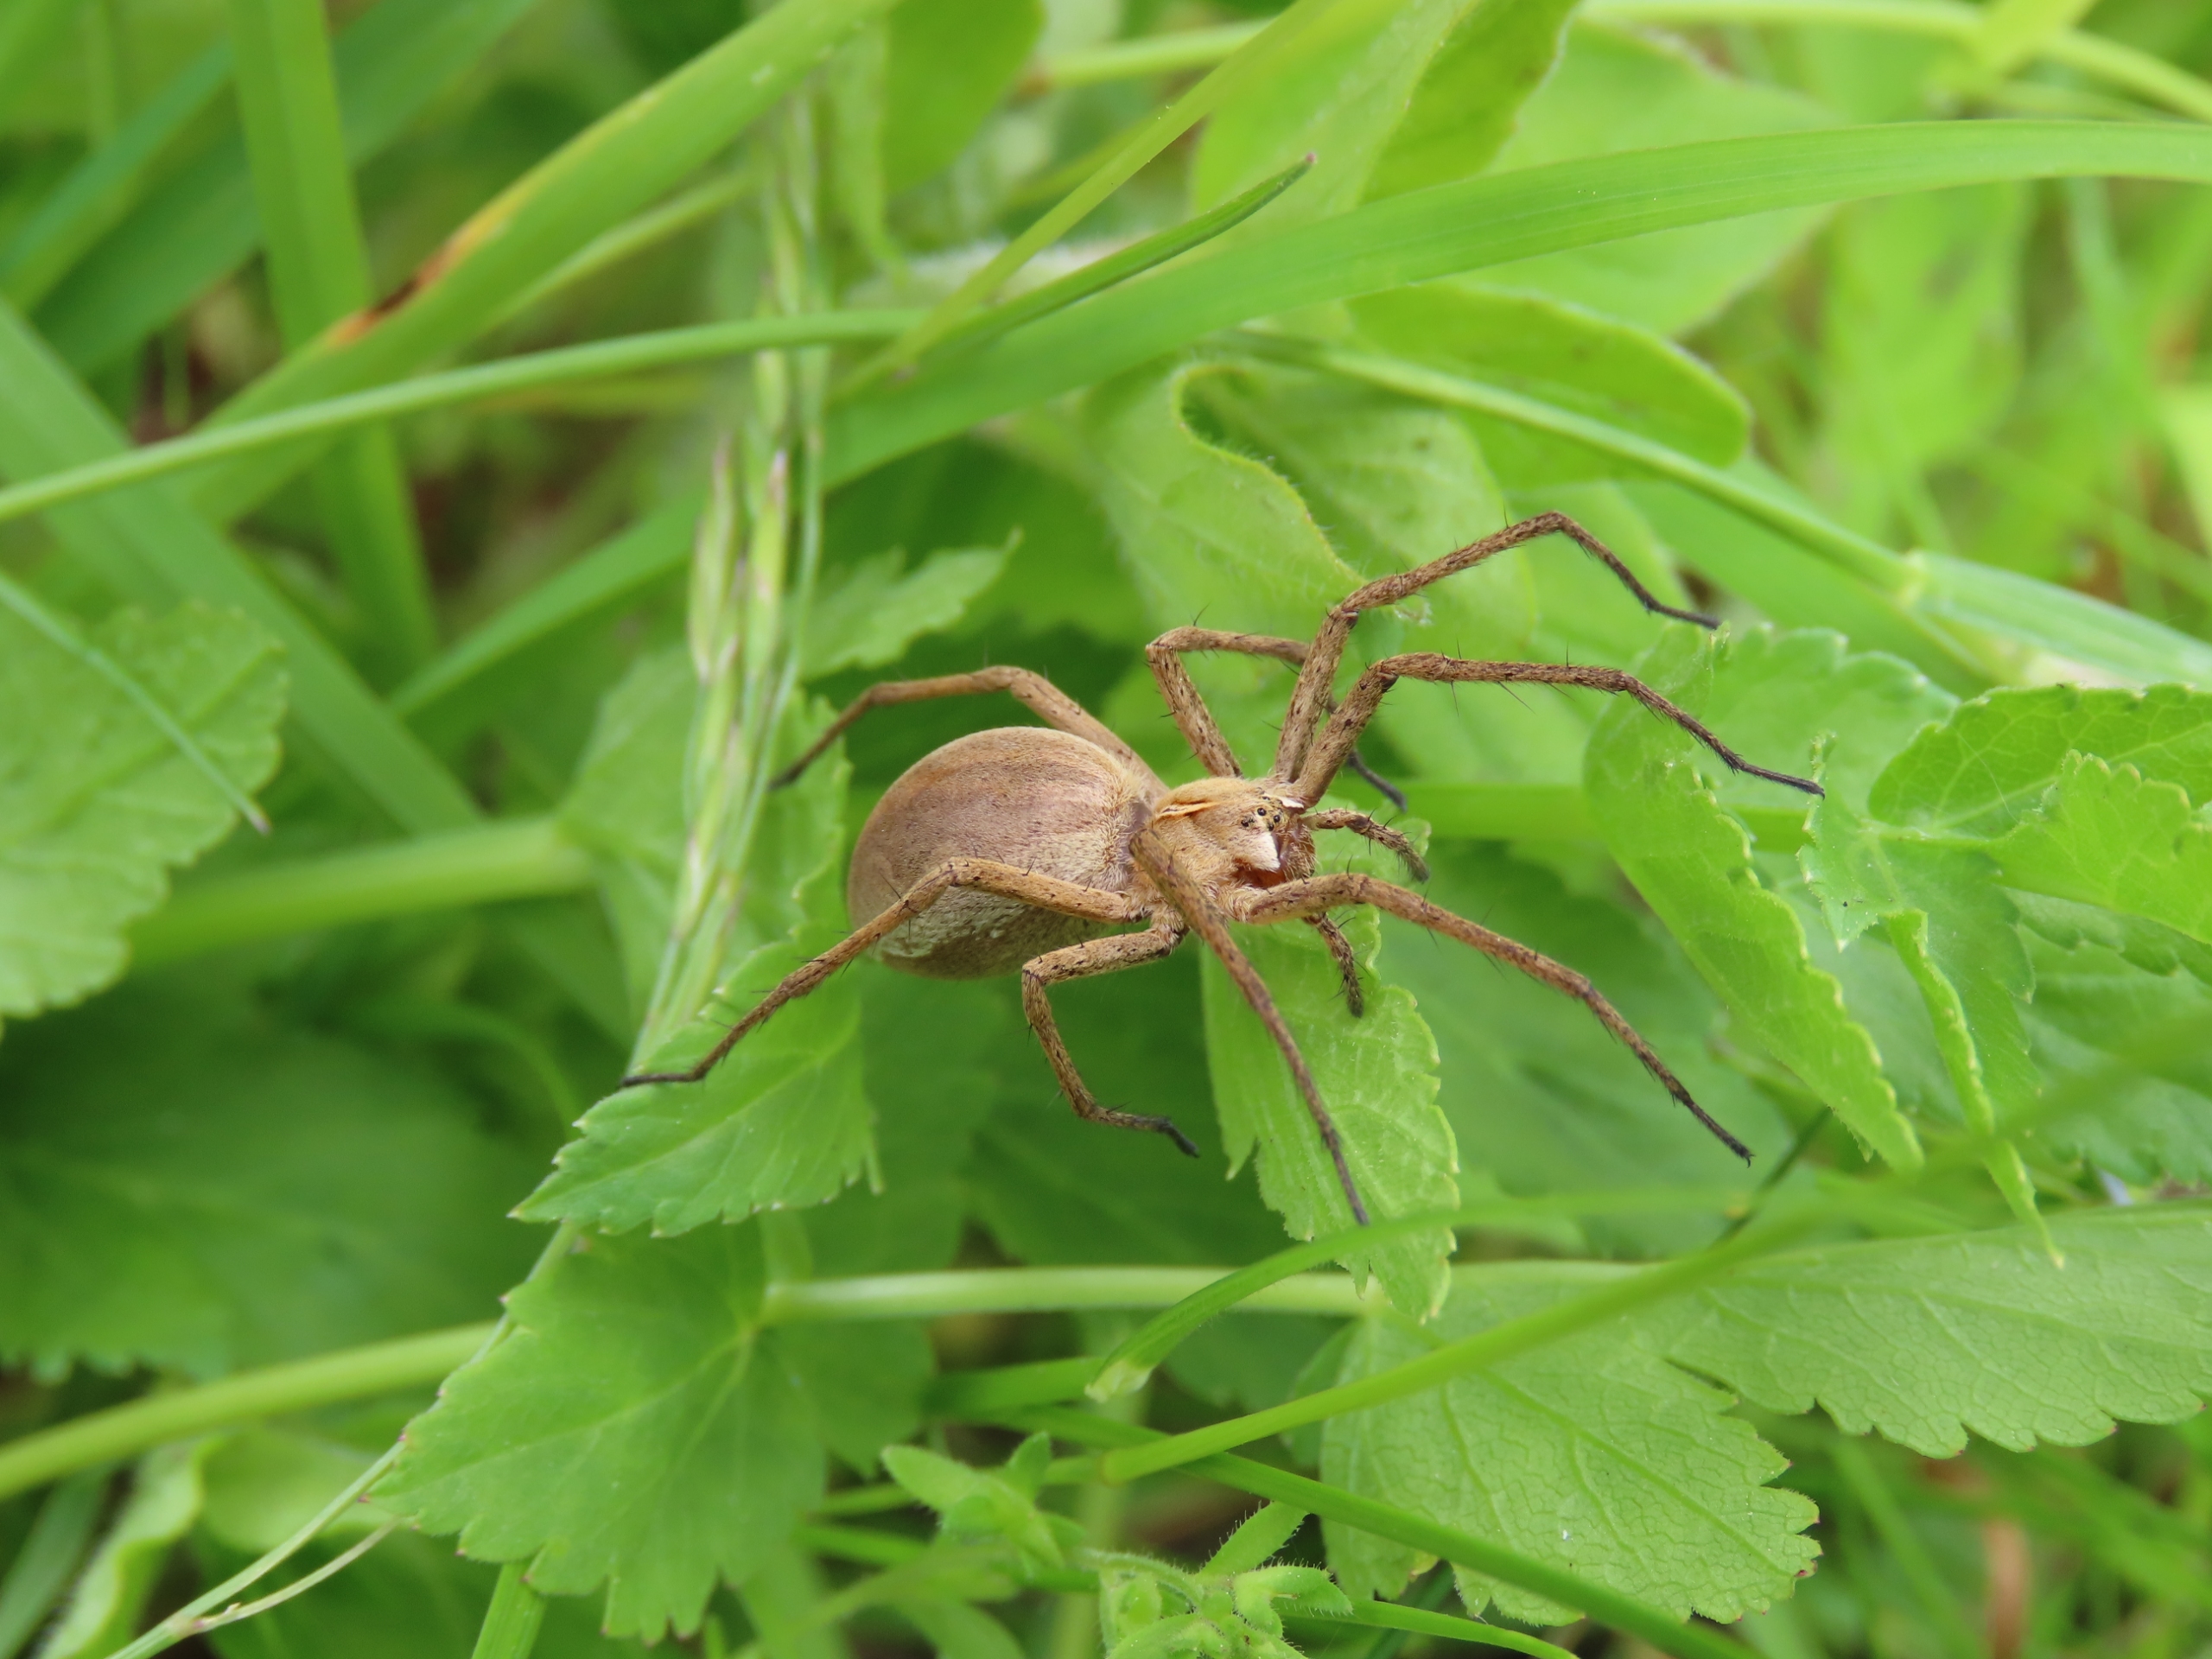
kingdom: Animalia
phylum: Arthropoda
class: Arachnida
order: Araneae
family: Pisauridae
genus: Pisaura
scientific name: Pisaura mirabilis
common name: Almindelig rovedderkop
